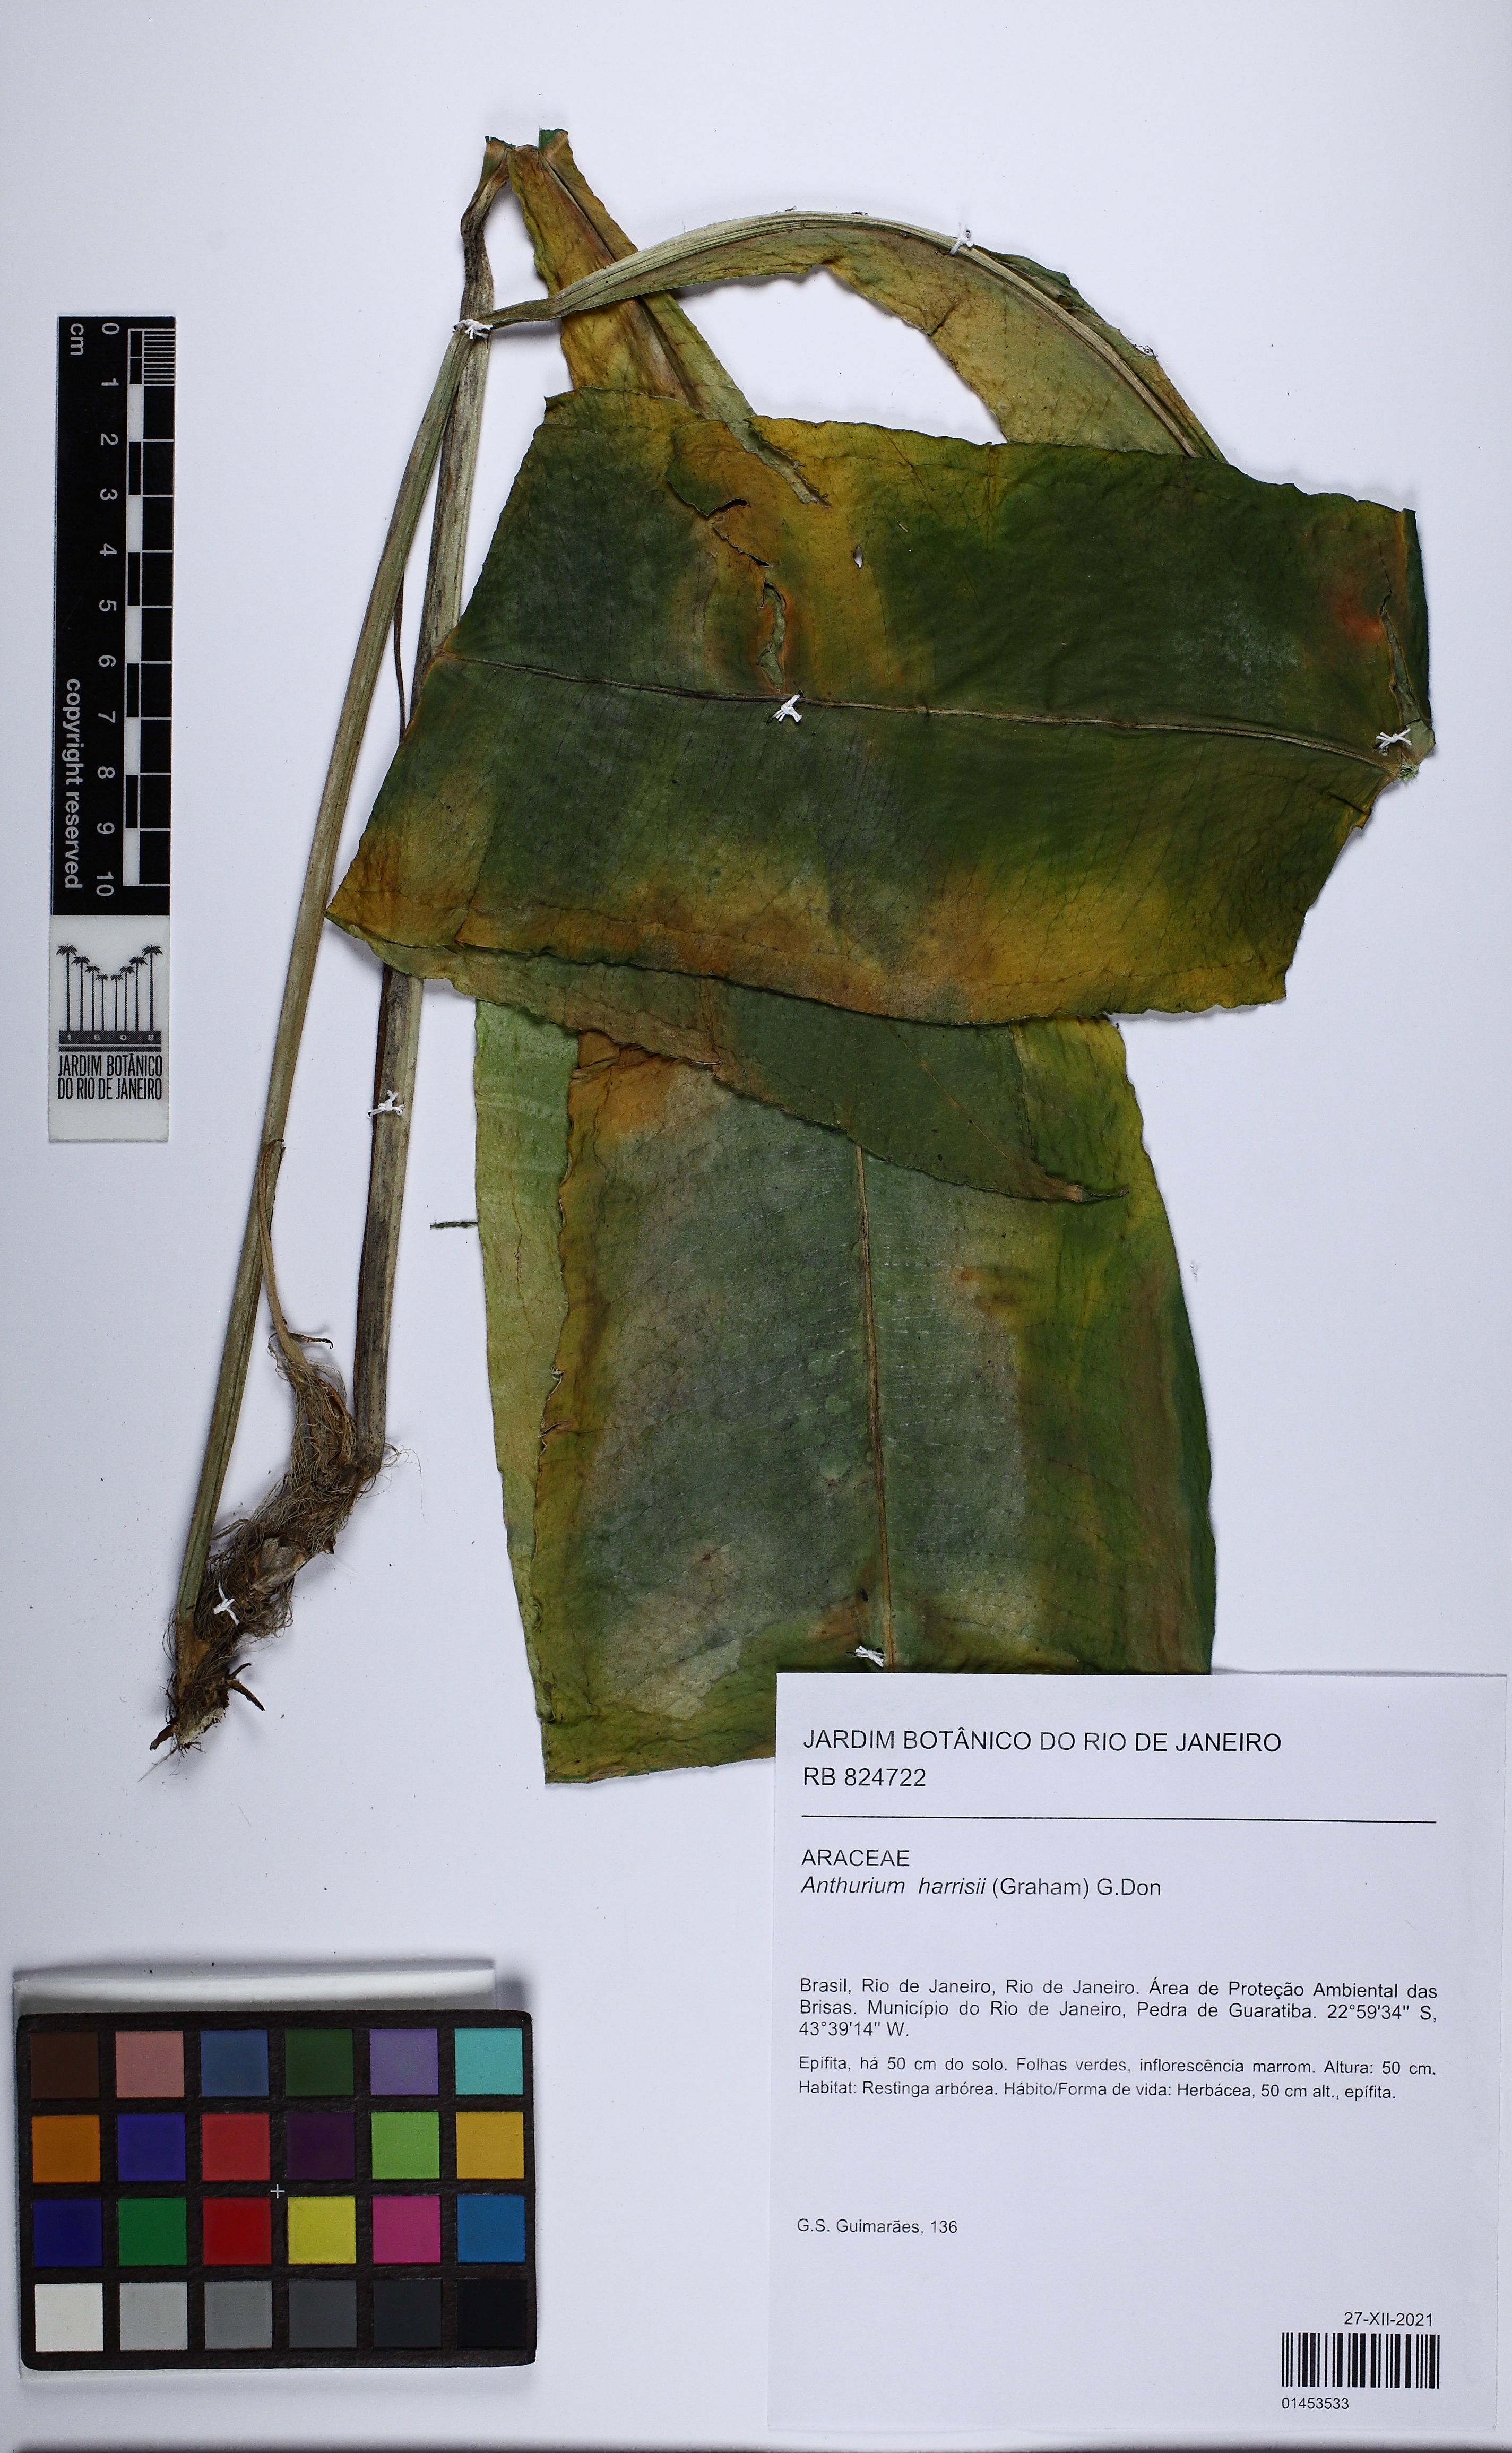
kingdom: Plantae
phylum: Tracheophyta
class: Liliopsida
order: Alismatales
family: Araceae
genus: Anthurium
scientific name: Anthurium harrisii
